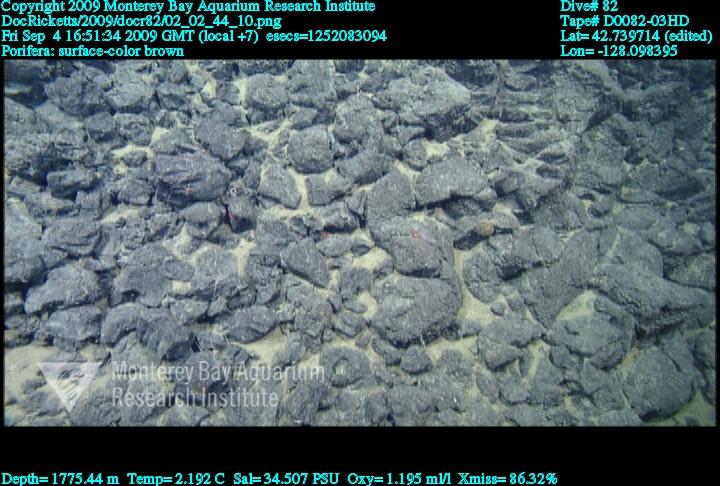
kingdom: Animalia
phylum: Porifera
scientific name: Porifera
